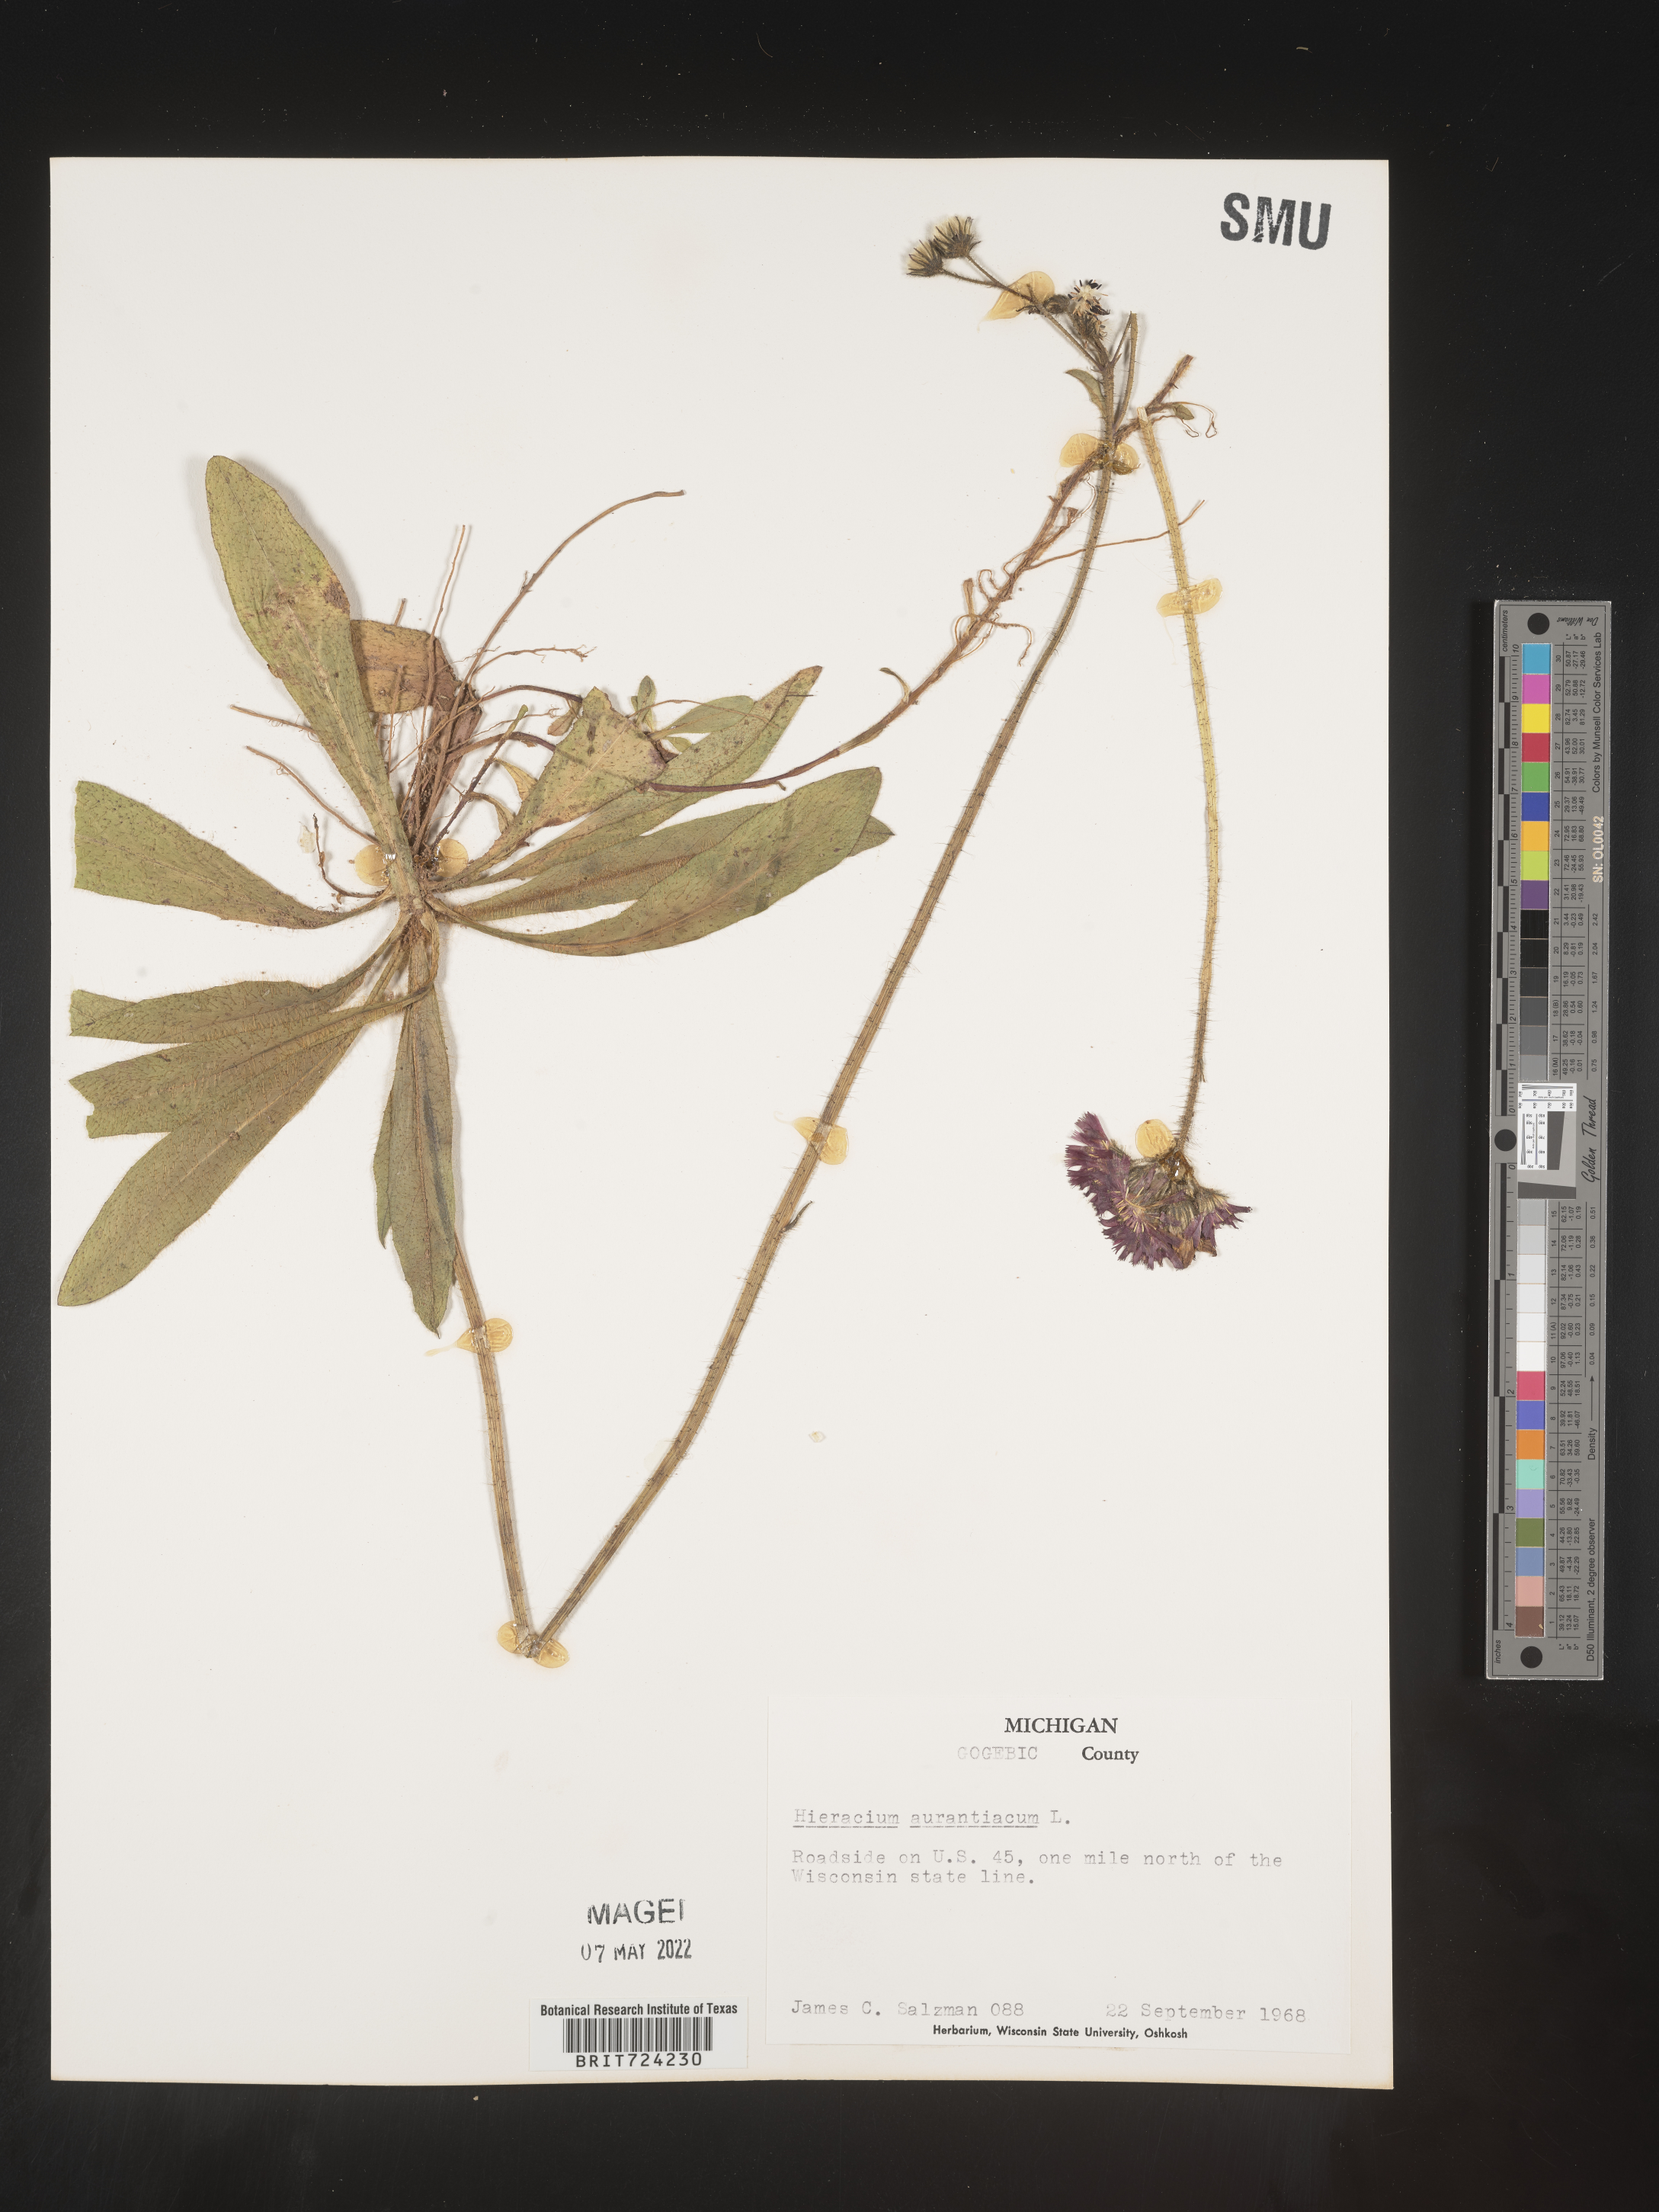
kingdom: Plantae
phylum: Tracheophyta
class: Magnoliopsida
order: Asterales
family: Asteraceae
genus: Pilosella
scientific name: Pilosella aurantiaca
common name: Fox-and-cubs
